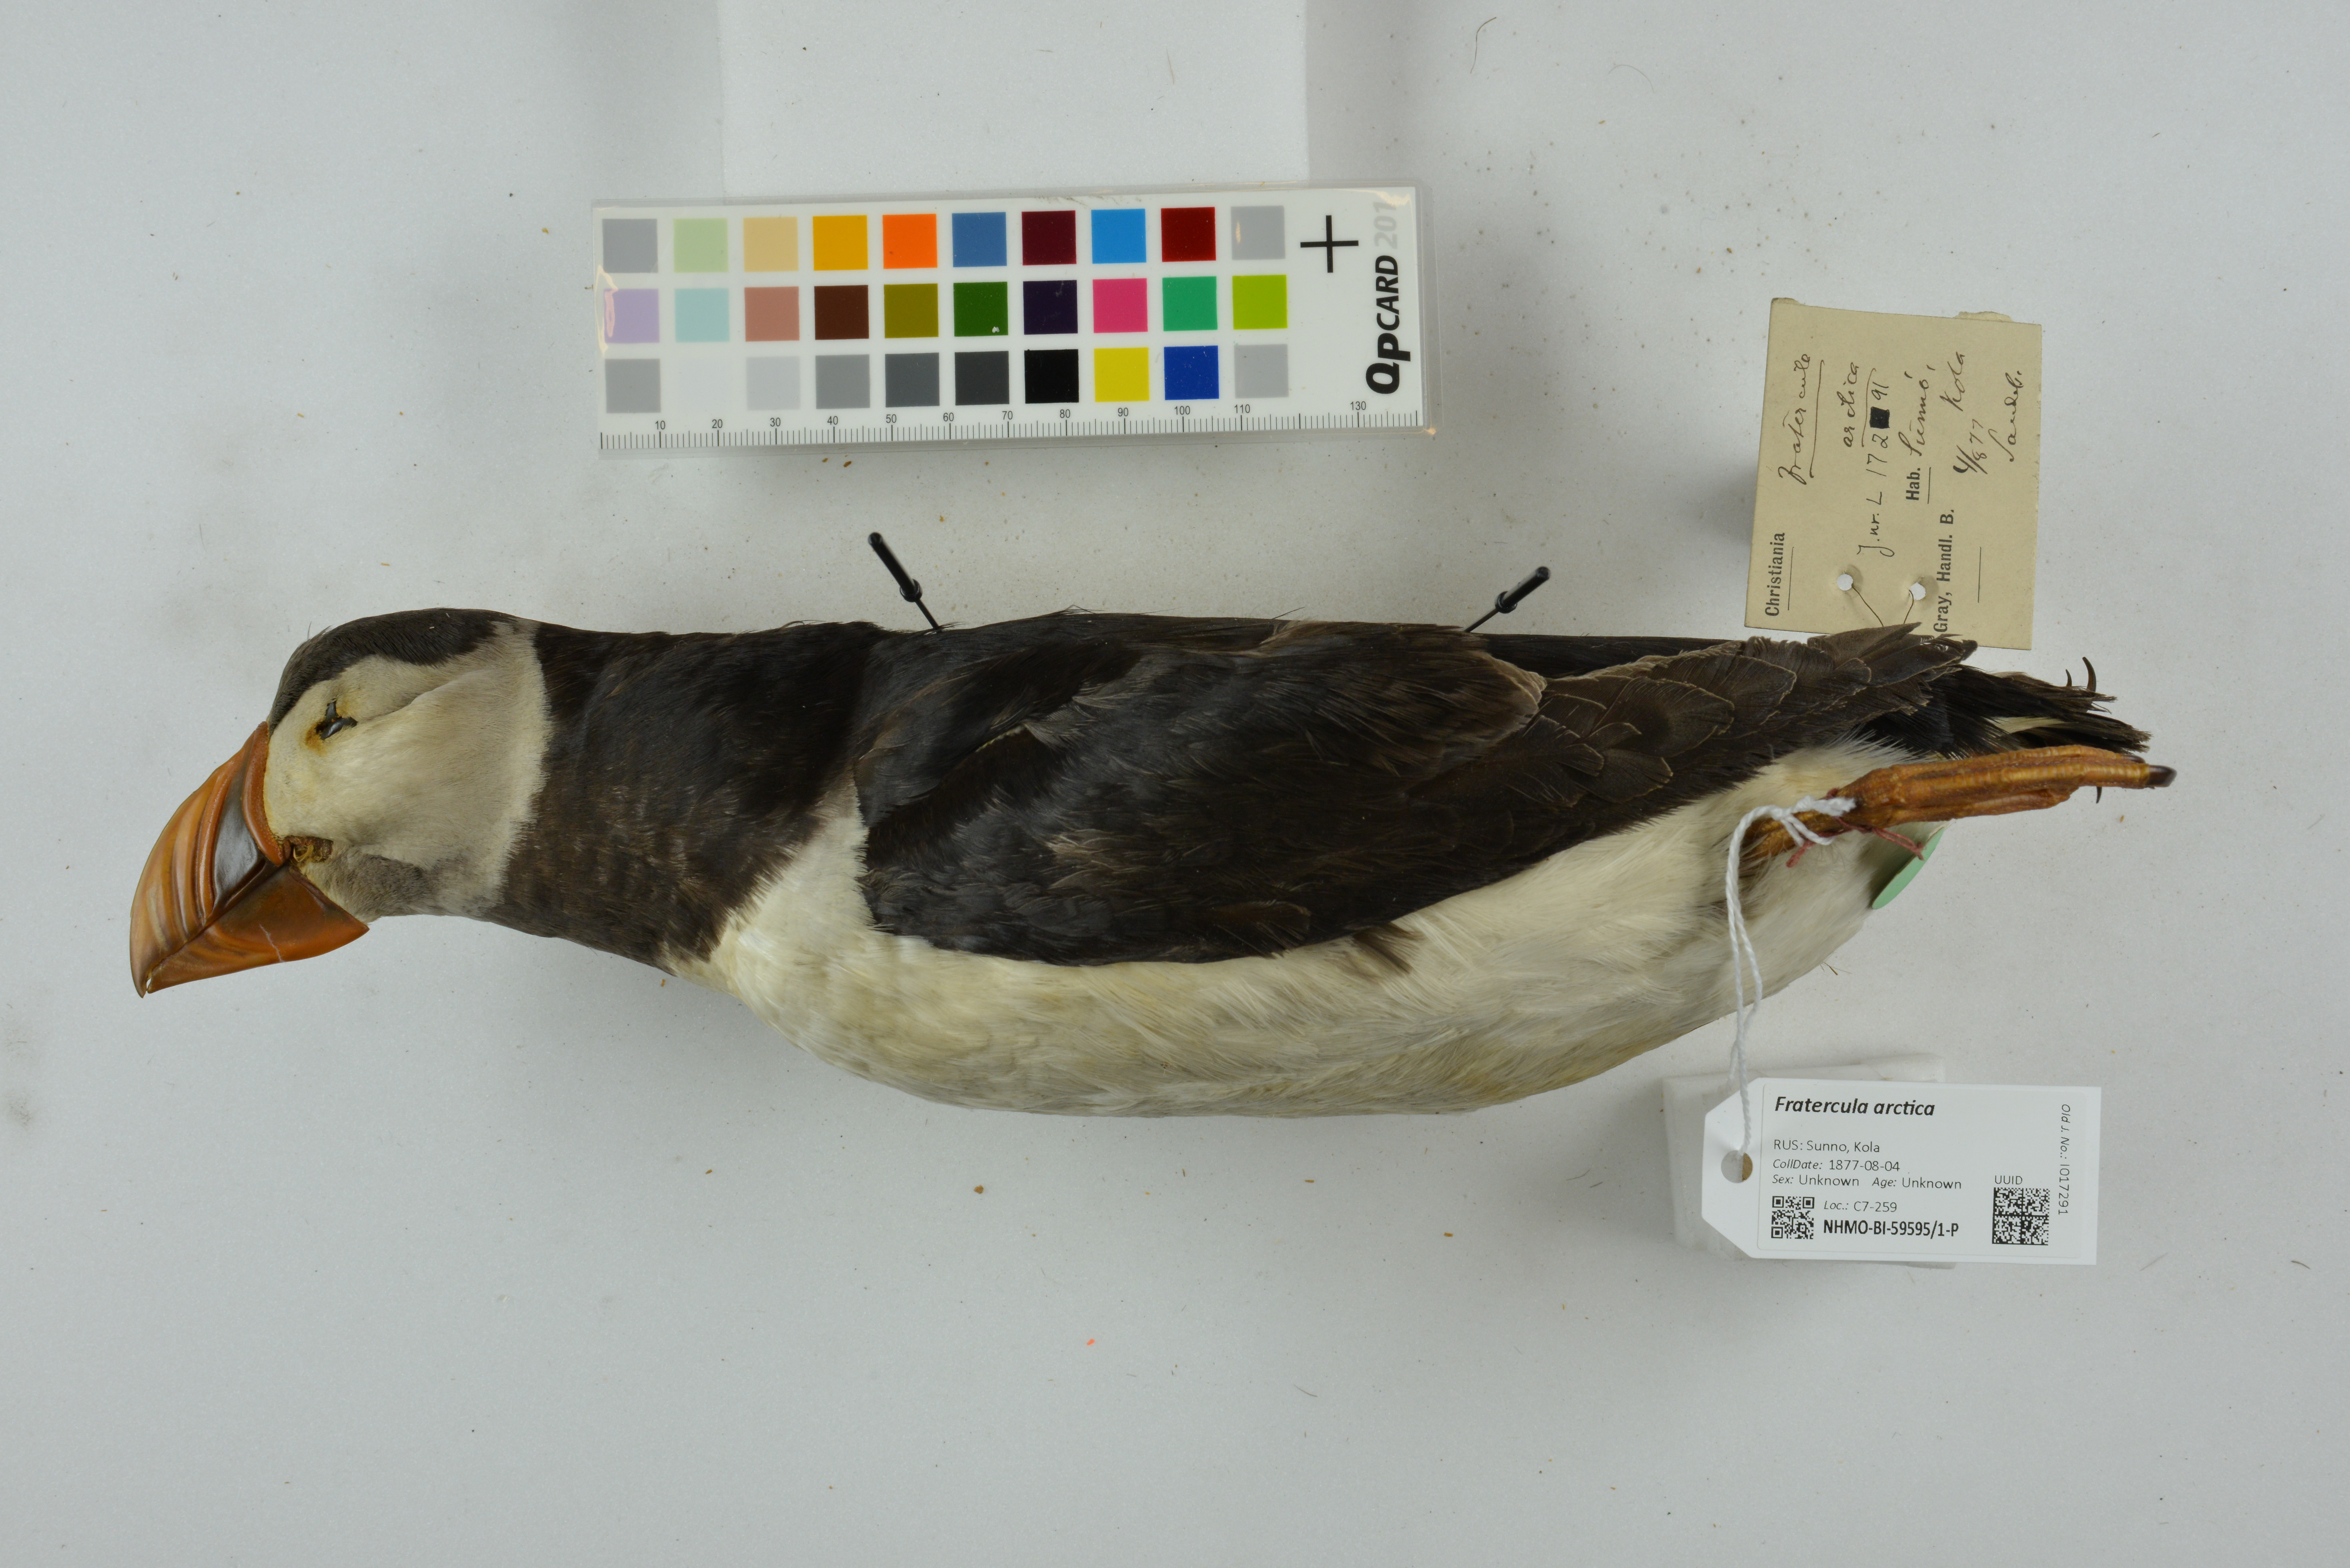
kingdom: Animalia
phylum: Chordata
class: Aves
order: Charadriiformes
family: Alcidae
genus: Fratercula
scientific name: Fratercula arctica
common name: Atlantic puffin
